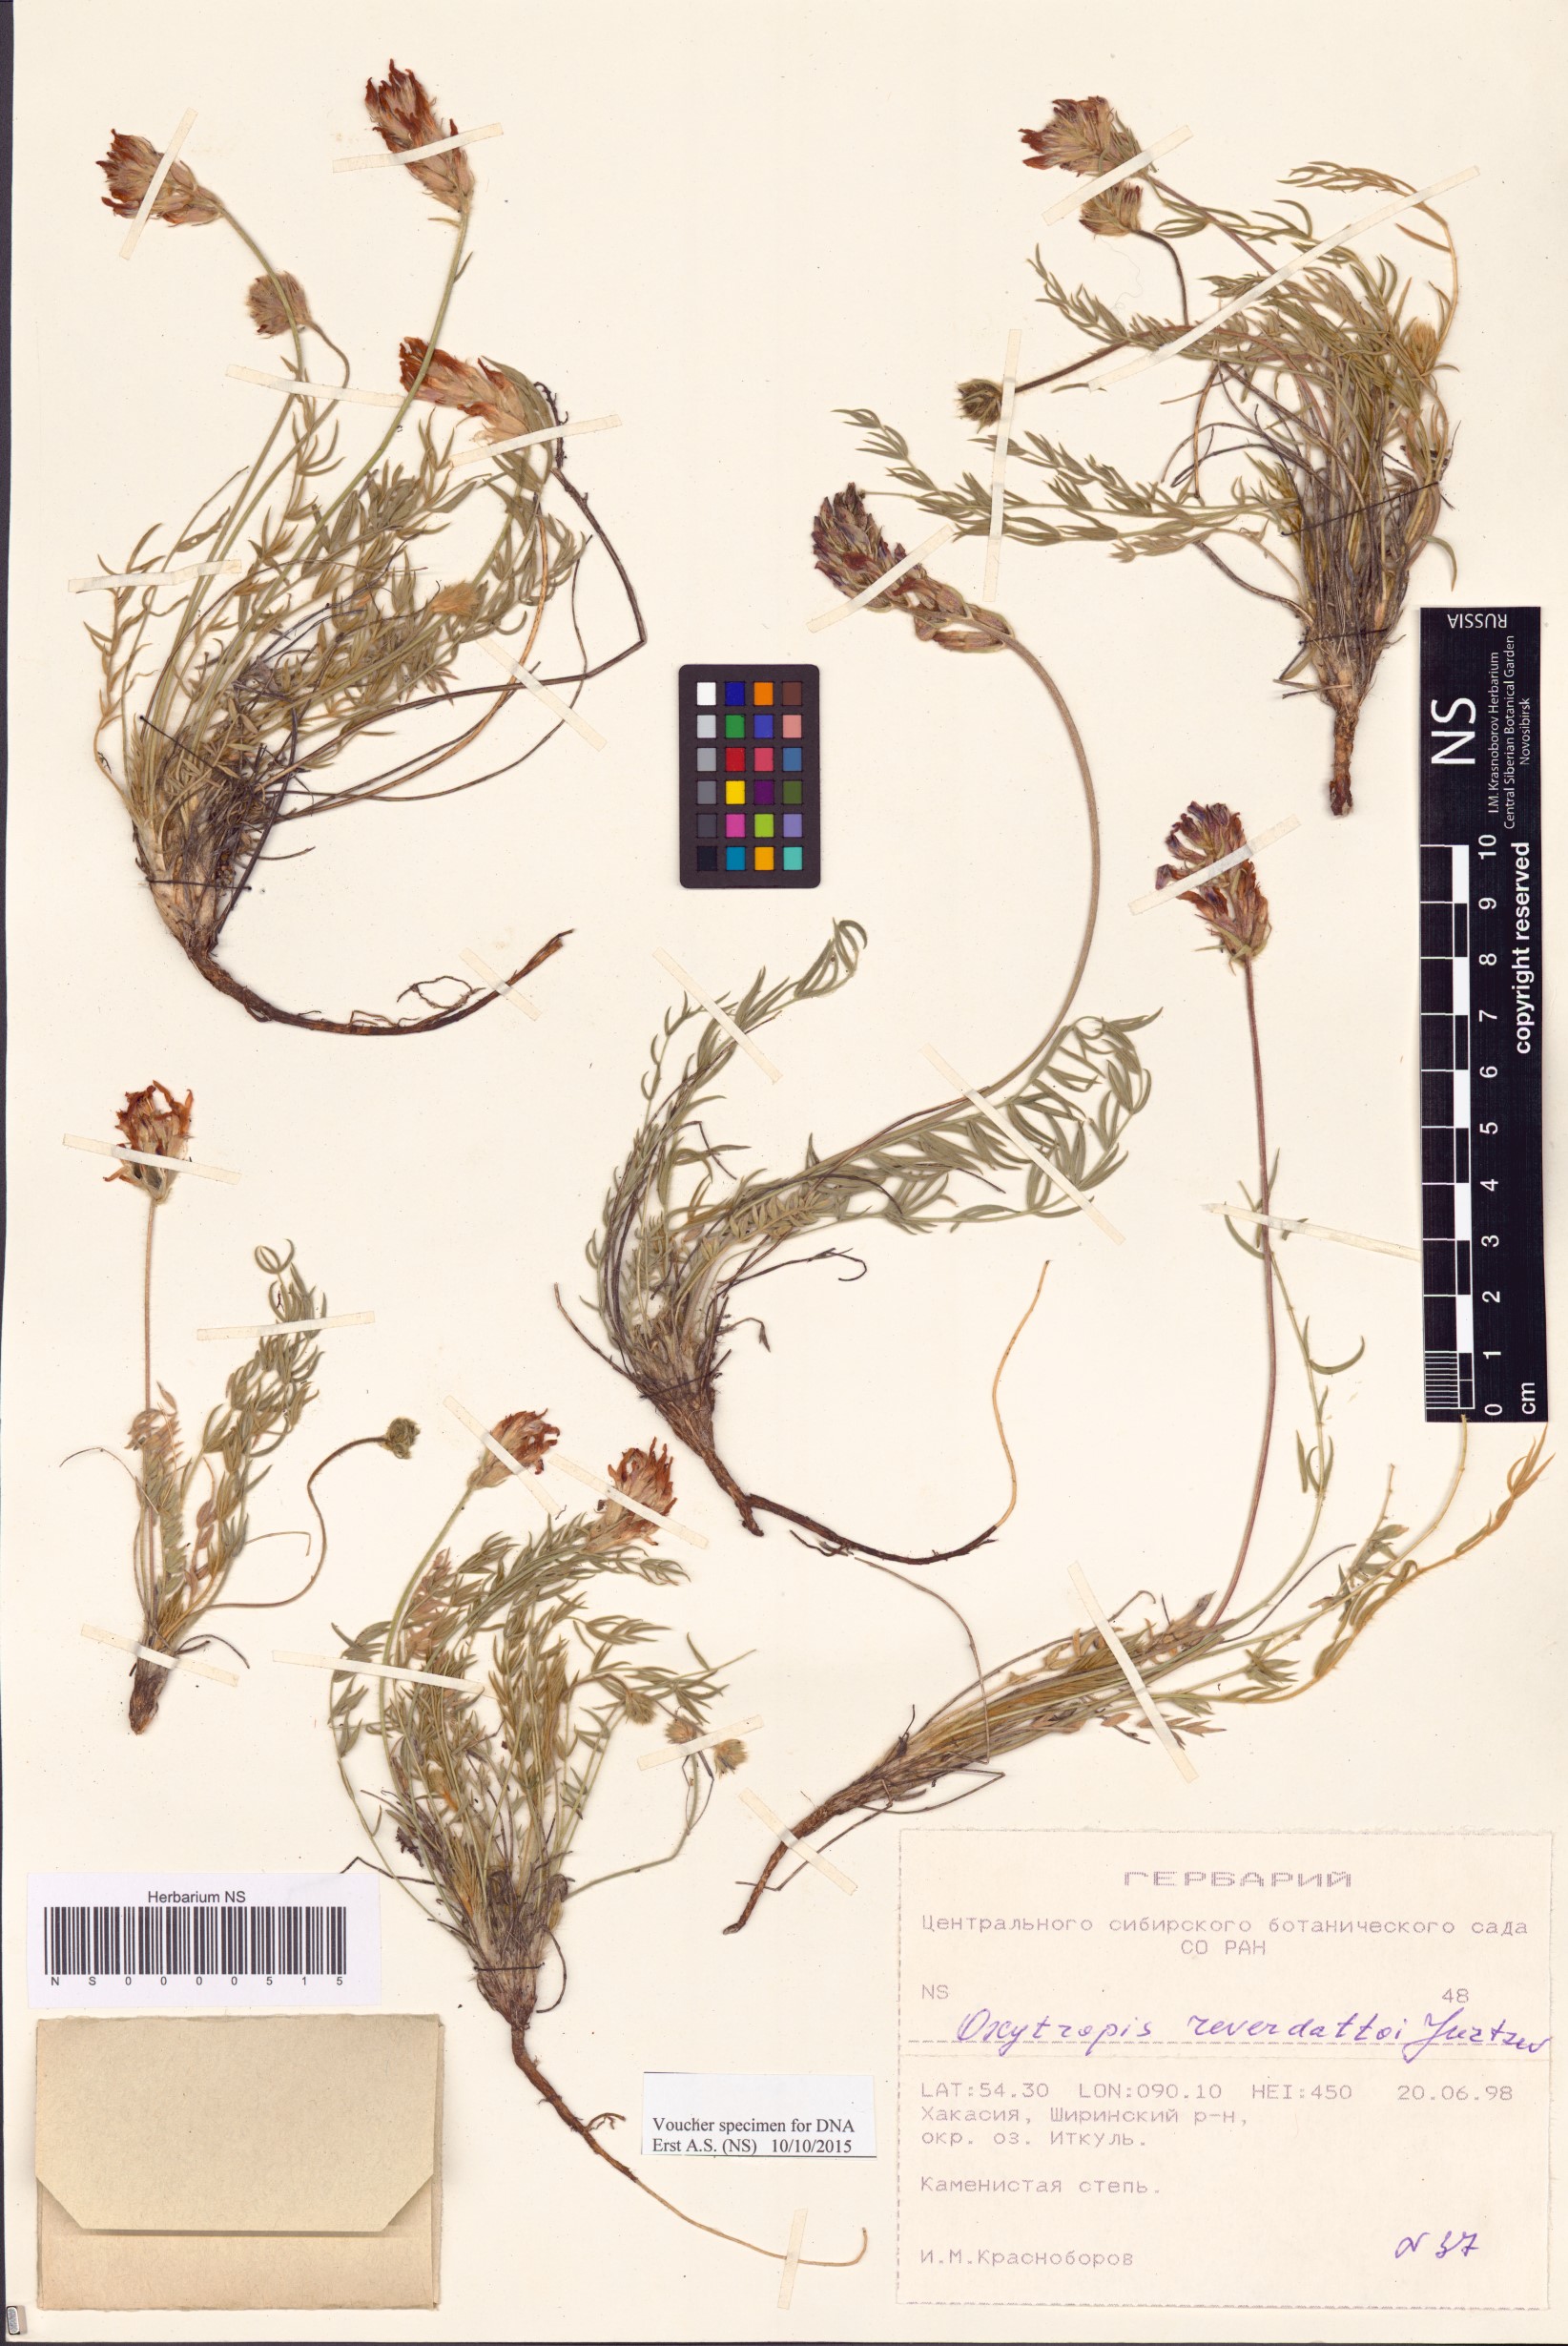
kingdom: Plantae
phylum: Tracheophyta
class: Magnoliopsida
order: Fabales
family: Fabaceae
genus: Oxytropis
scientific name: Oxytropis reverdattoi
